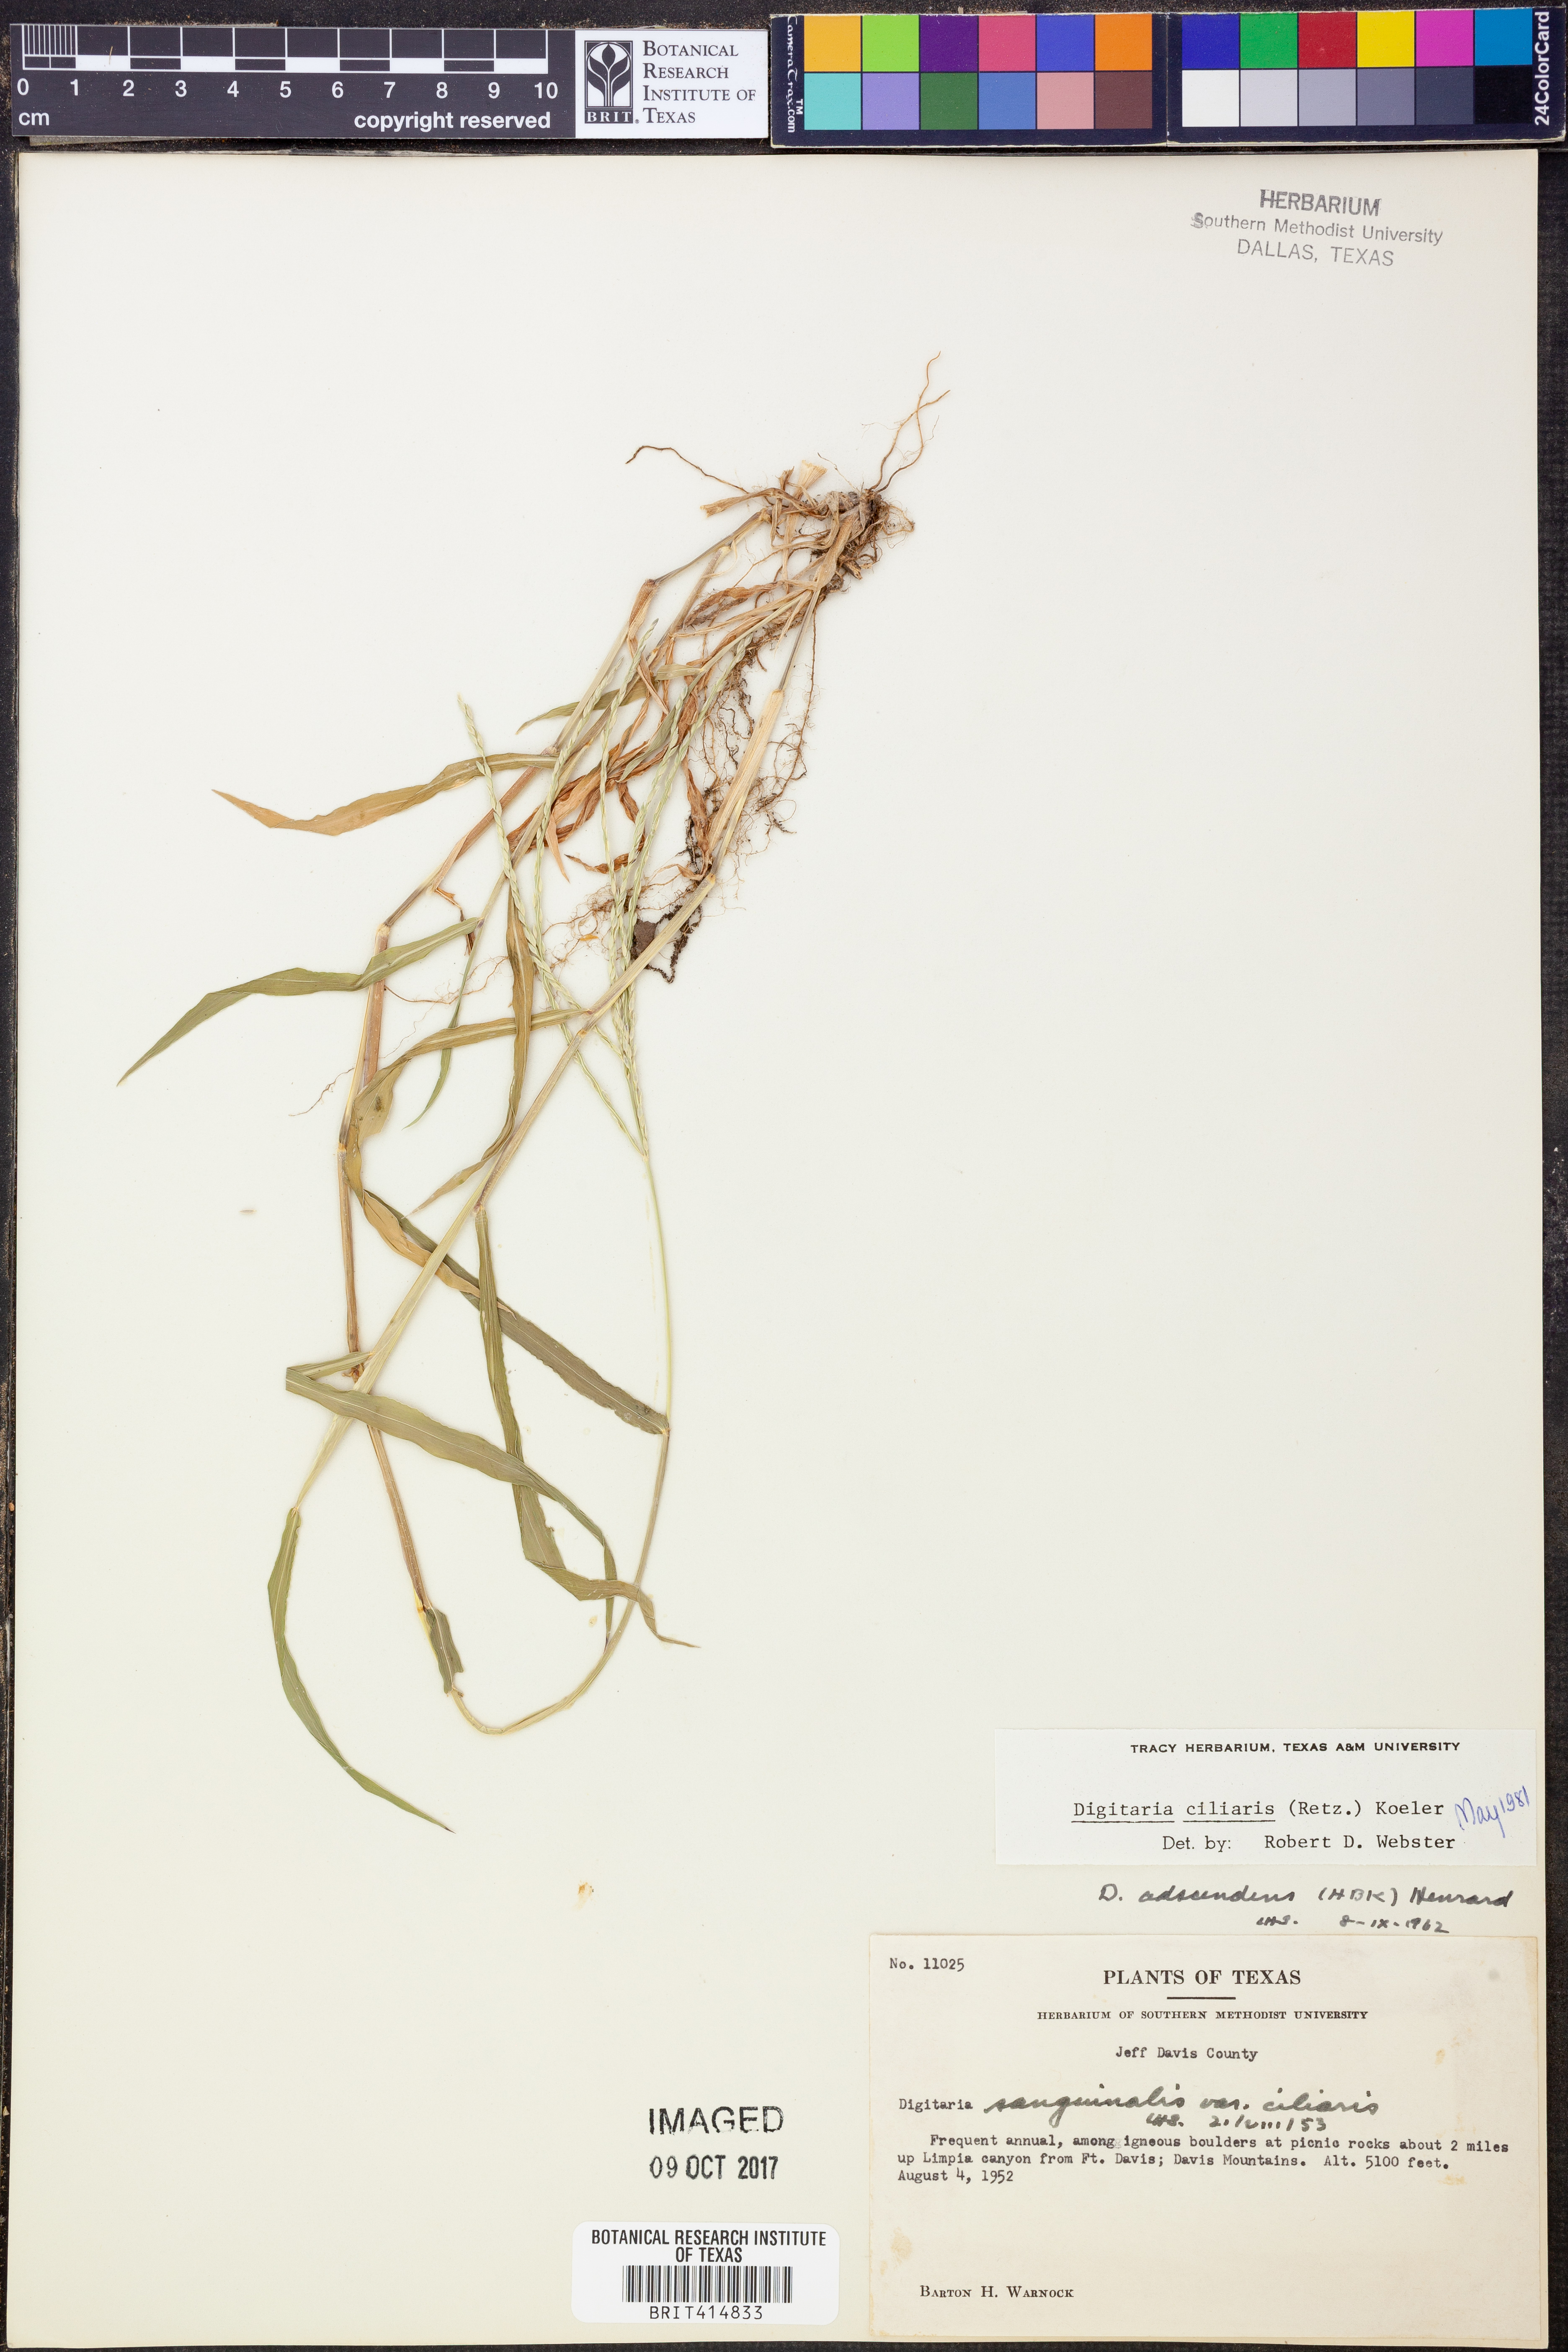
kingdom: Plantae
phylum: Tracheophyta
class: Liliopsida
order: Poales
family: Poaceae
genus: Digitaria
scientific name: Digitaria ciliaris
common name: Tropical finger-grass
